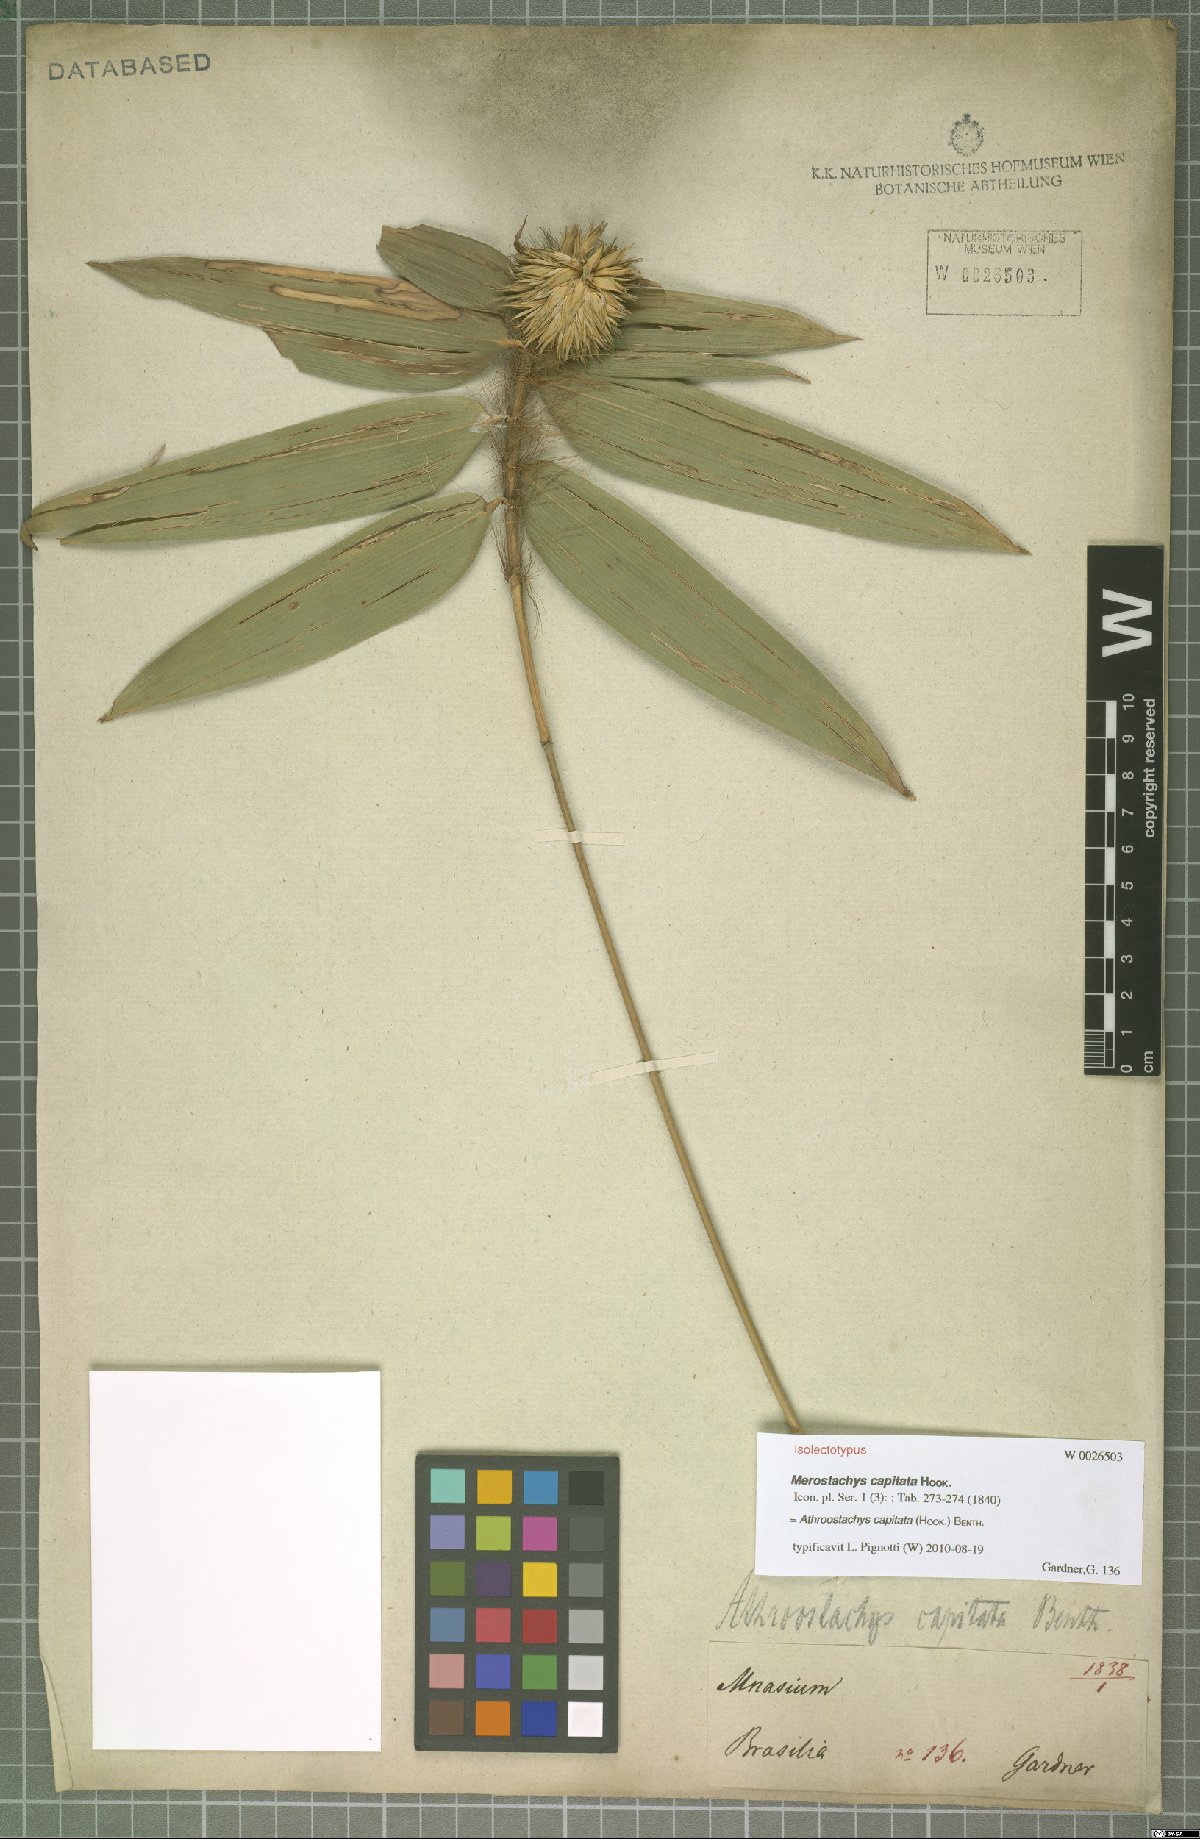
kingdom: Plantae
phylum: Tracheophyta
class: Liliopsida
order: Poales
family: Poaceae
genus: Athroostachys
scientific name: Athroostachys capitata
